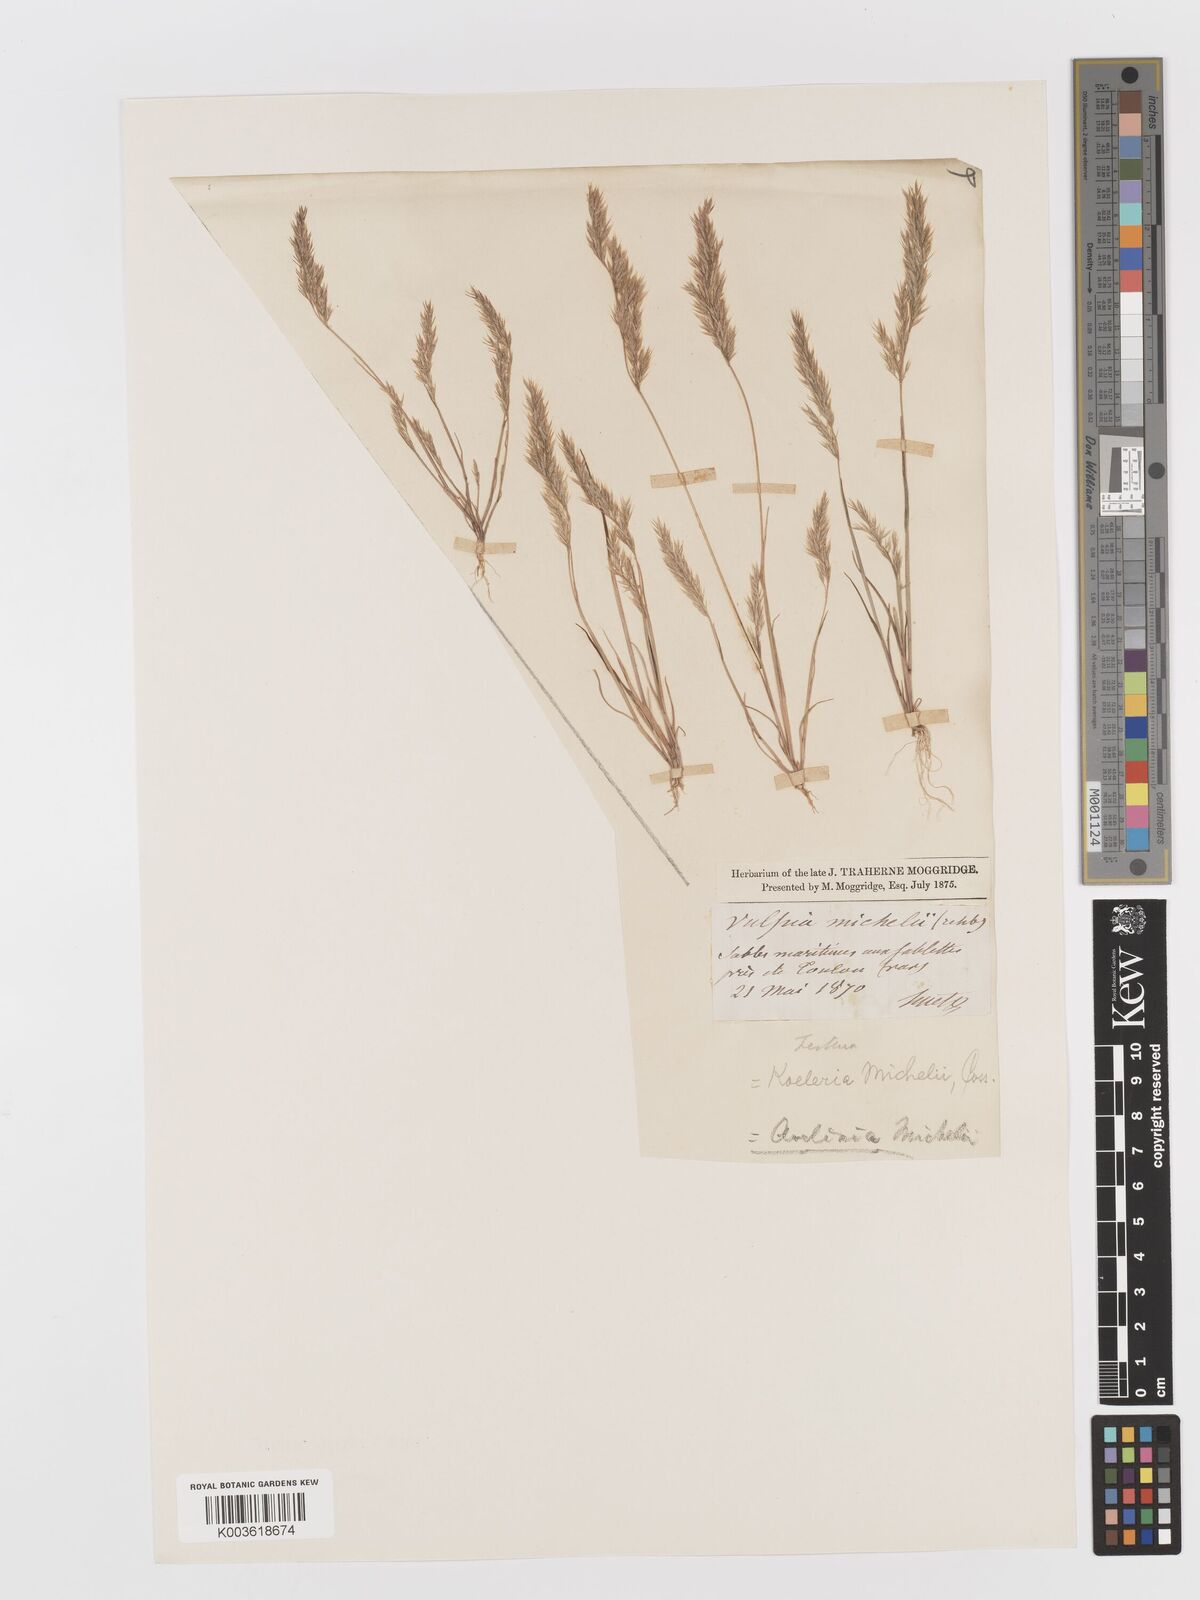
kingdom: Plantae
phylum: Tracheophyta
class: Liliopsida
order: Poales
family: Poaceae
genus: Avellinia
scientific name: Avellinia festucoides
